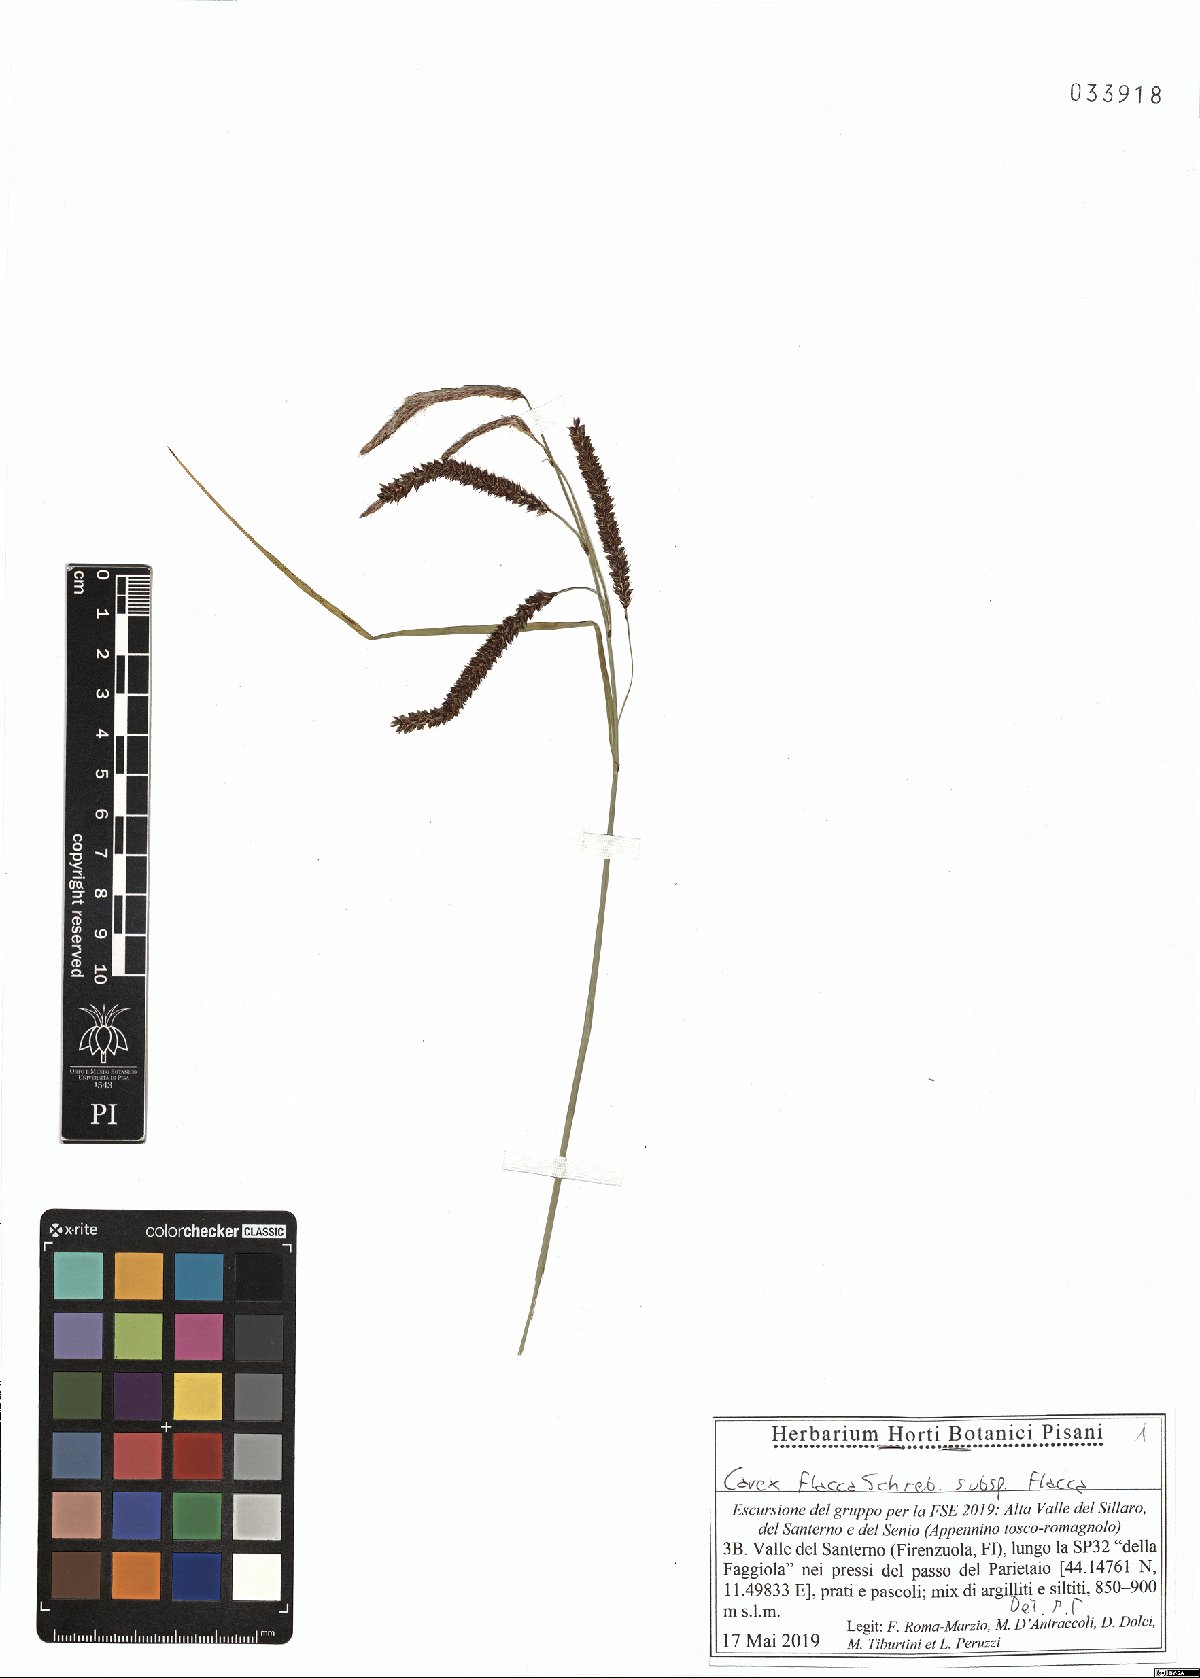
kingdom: Plantae
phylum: Tracheophyta
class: Liliopsida
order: Poales
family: Cyperaceae
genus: Carex
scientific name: Carex flacca
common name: Glaucous sedge
